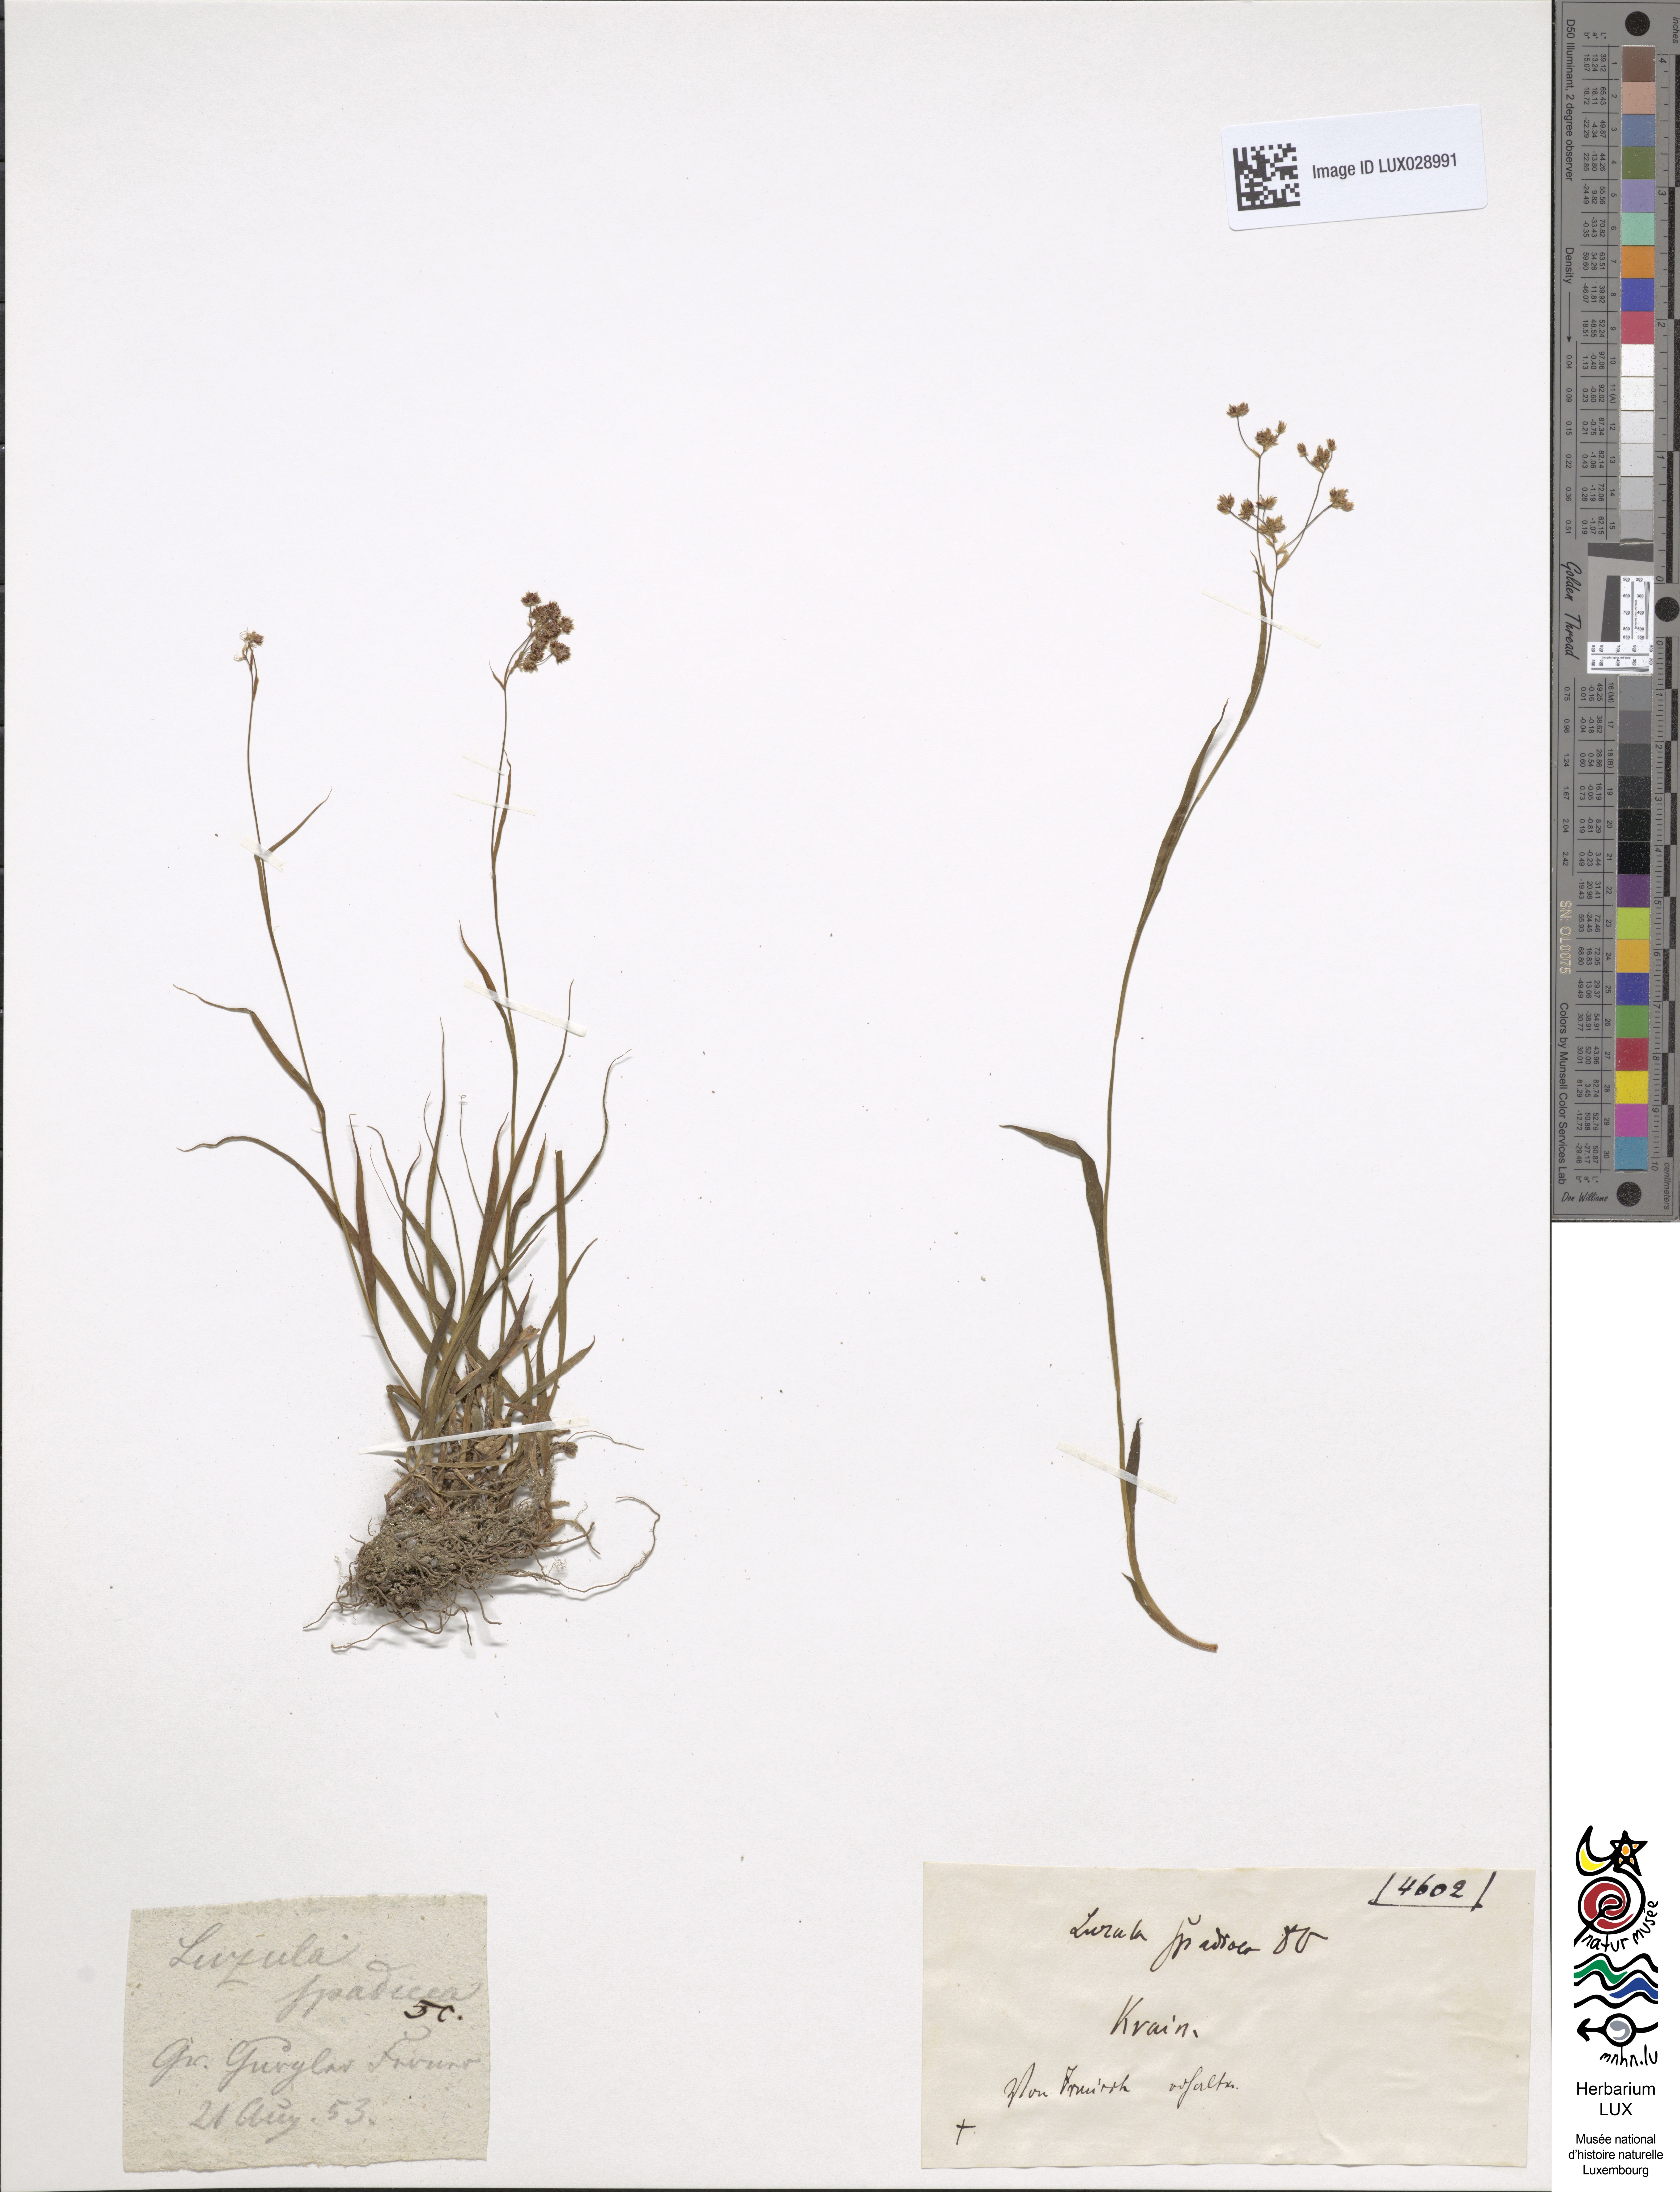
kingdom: Plantae
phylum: Tracheophyta
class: Liliopsida
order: Poales
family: Juncaceae
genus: Luzula
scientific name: Luzula alpinopilosa
